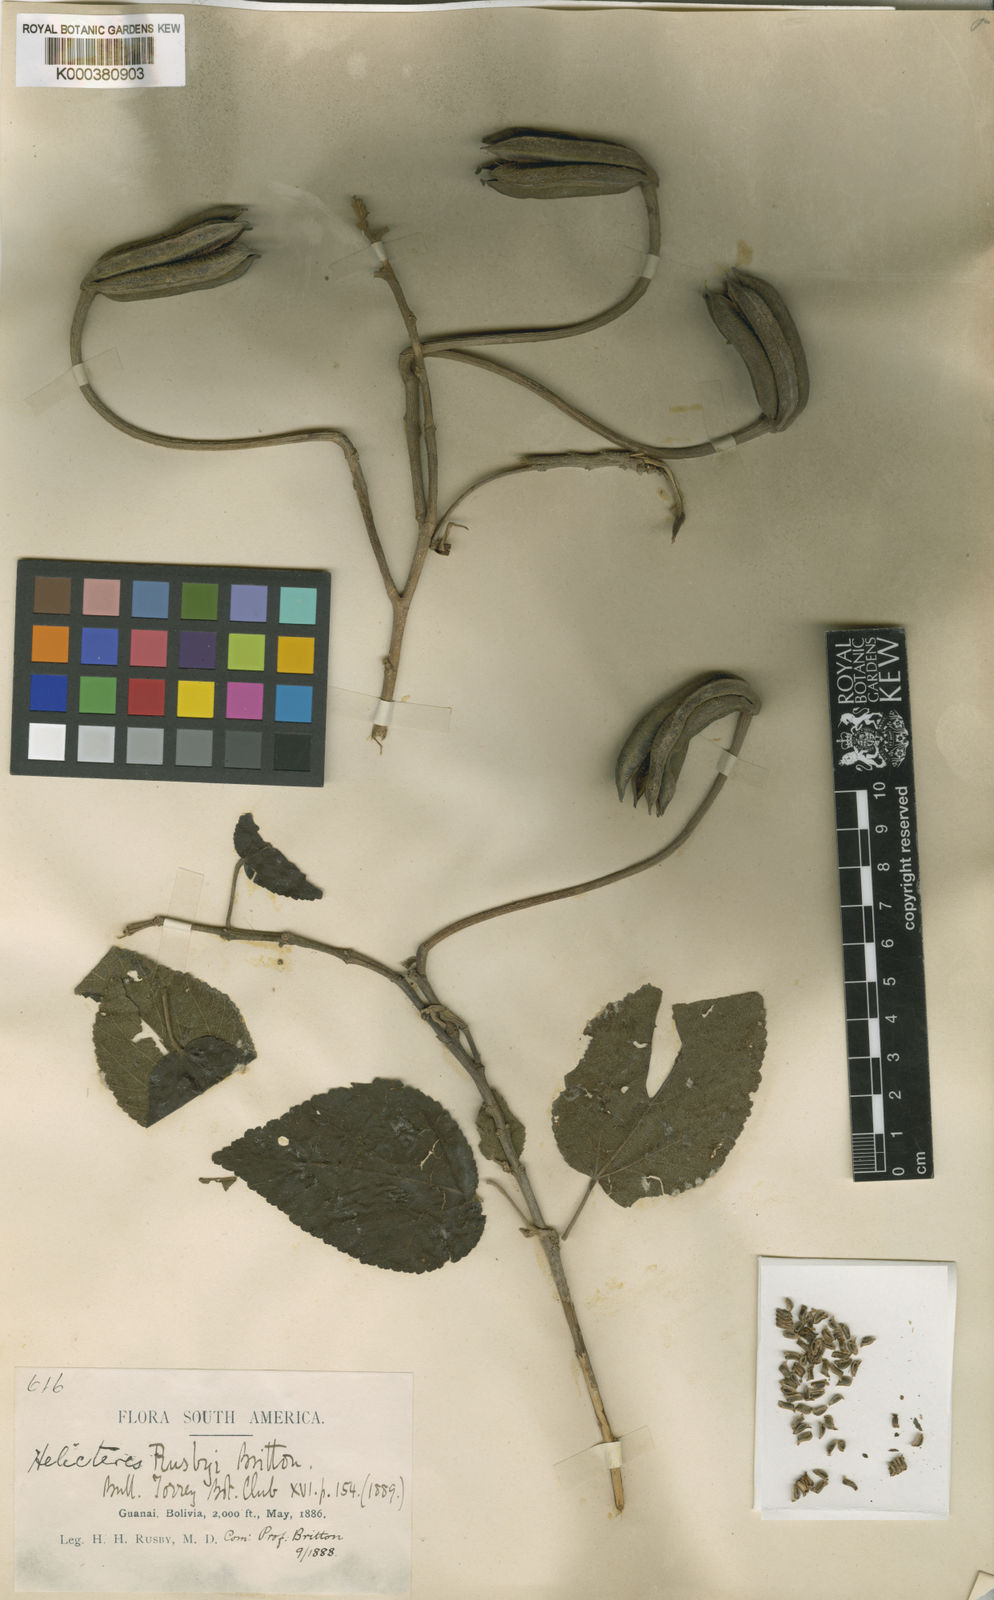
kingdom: Plantae
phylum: Tracheophyta
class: Magnoliopsida
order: Malvales
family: Malvaceae
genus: Helicteres
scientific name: Helicteres lhotzkyana
